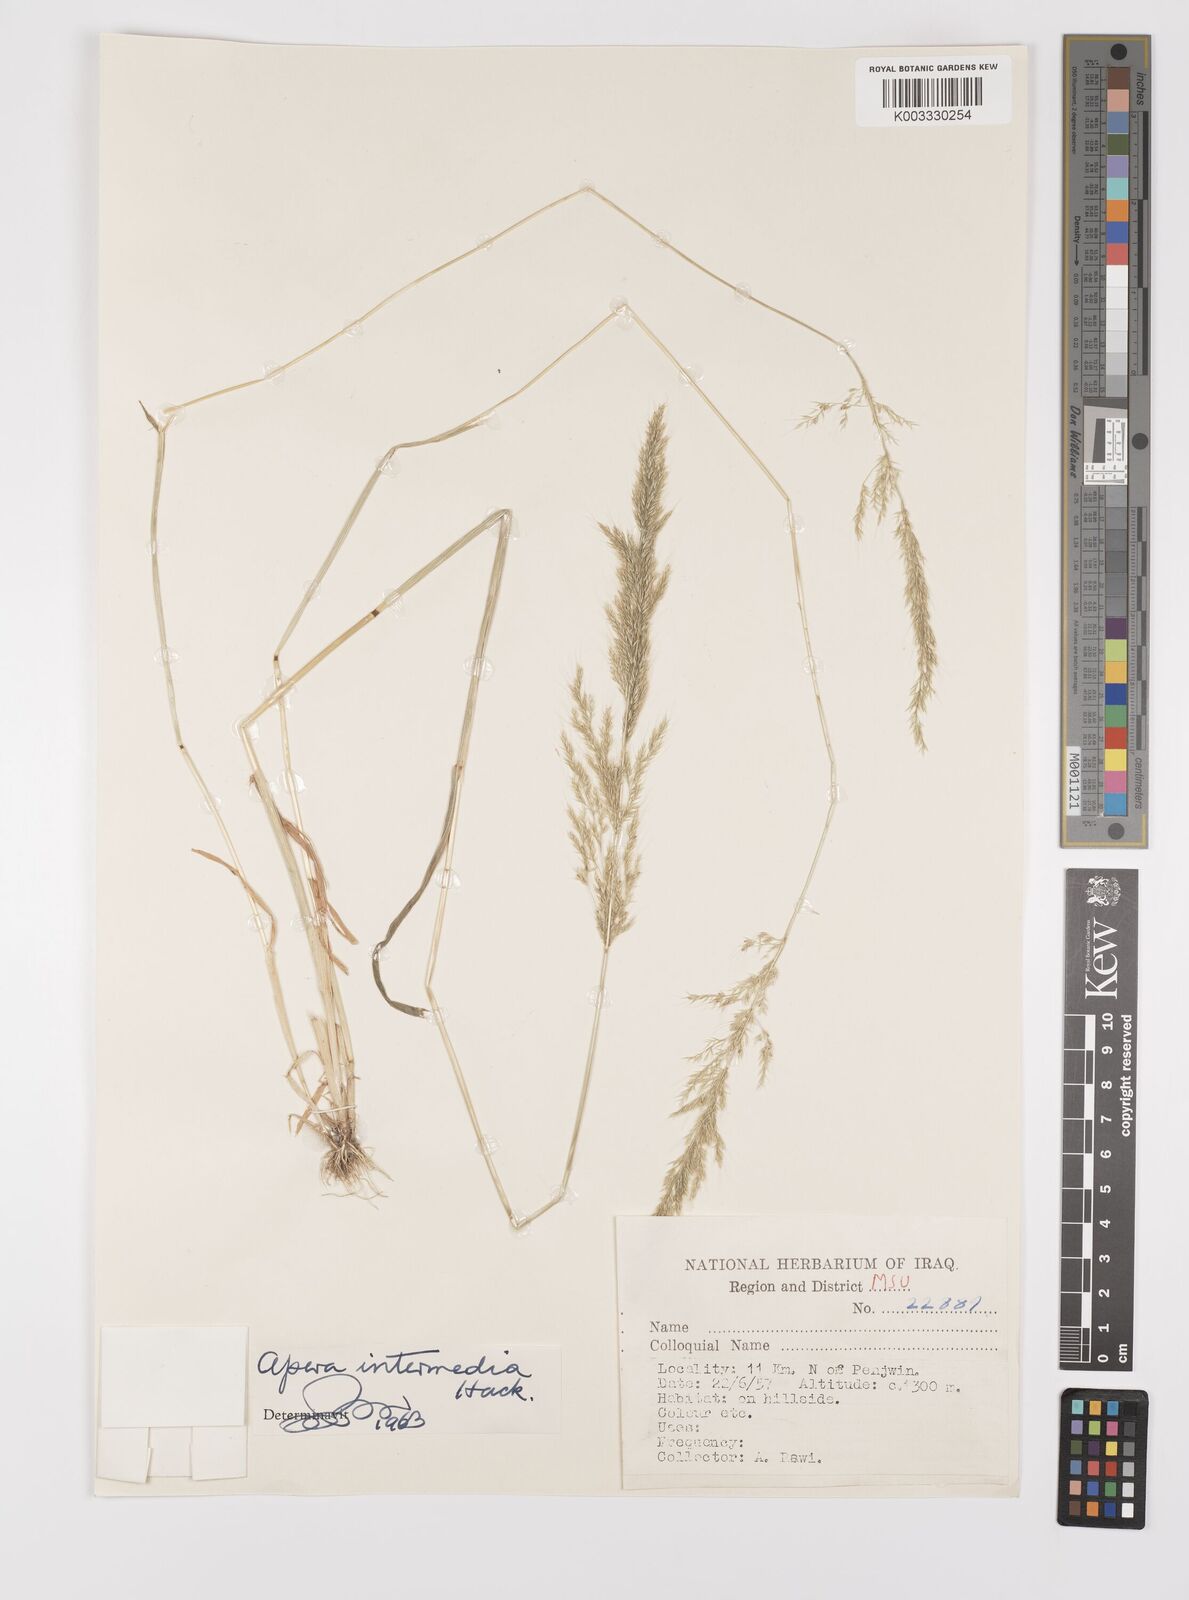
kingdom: Plantae
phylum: Tracheophyta
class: Liliopsida
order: Poales
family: Poaceae
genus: Apera
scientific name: Apera intermedia
